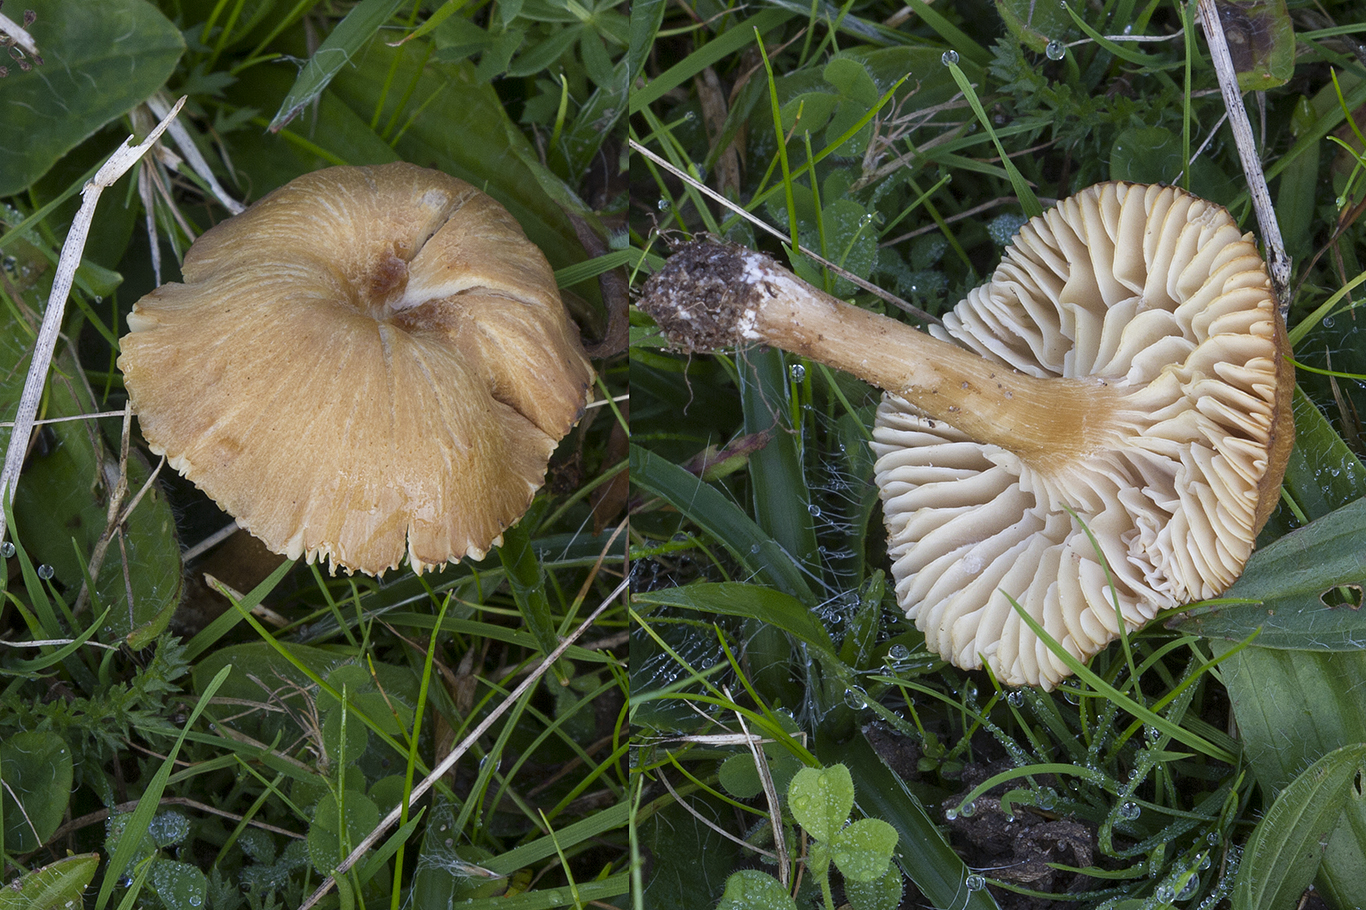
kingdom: Fungi
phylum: Basidiomycota
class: Agaricomycetes
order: Agaricales
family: Callistosporiaceae
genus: Pseudolaccaria
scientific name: Pseudolaccaria pachyphylla
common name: hvælvet tykblad
